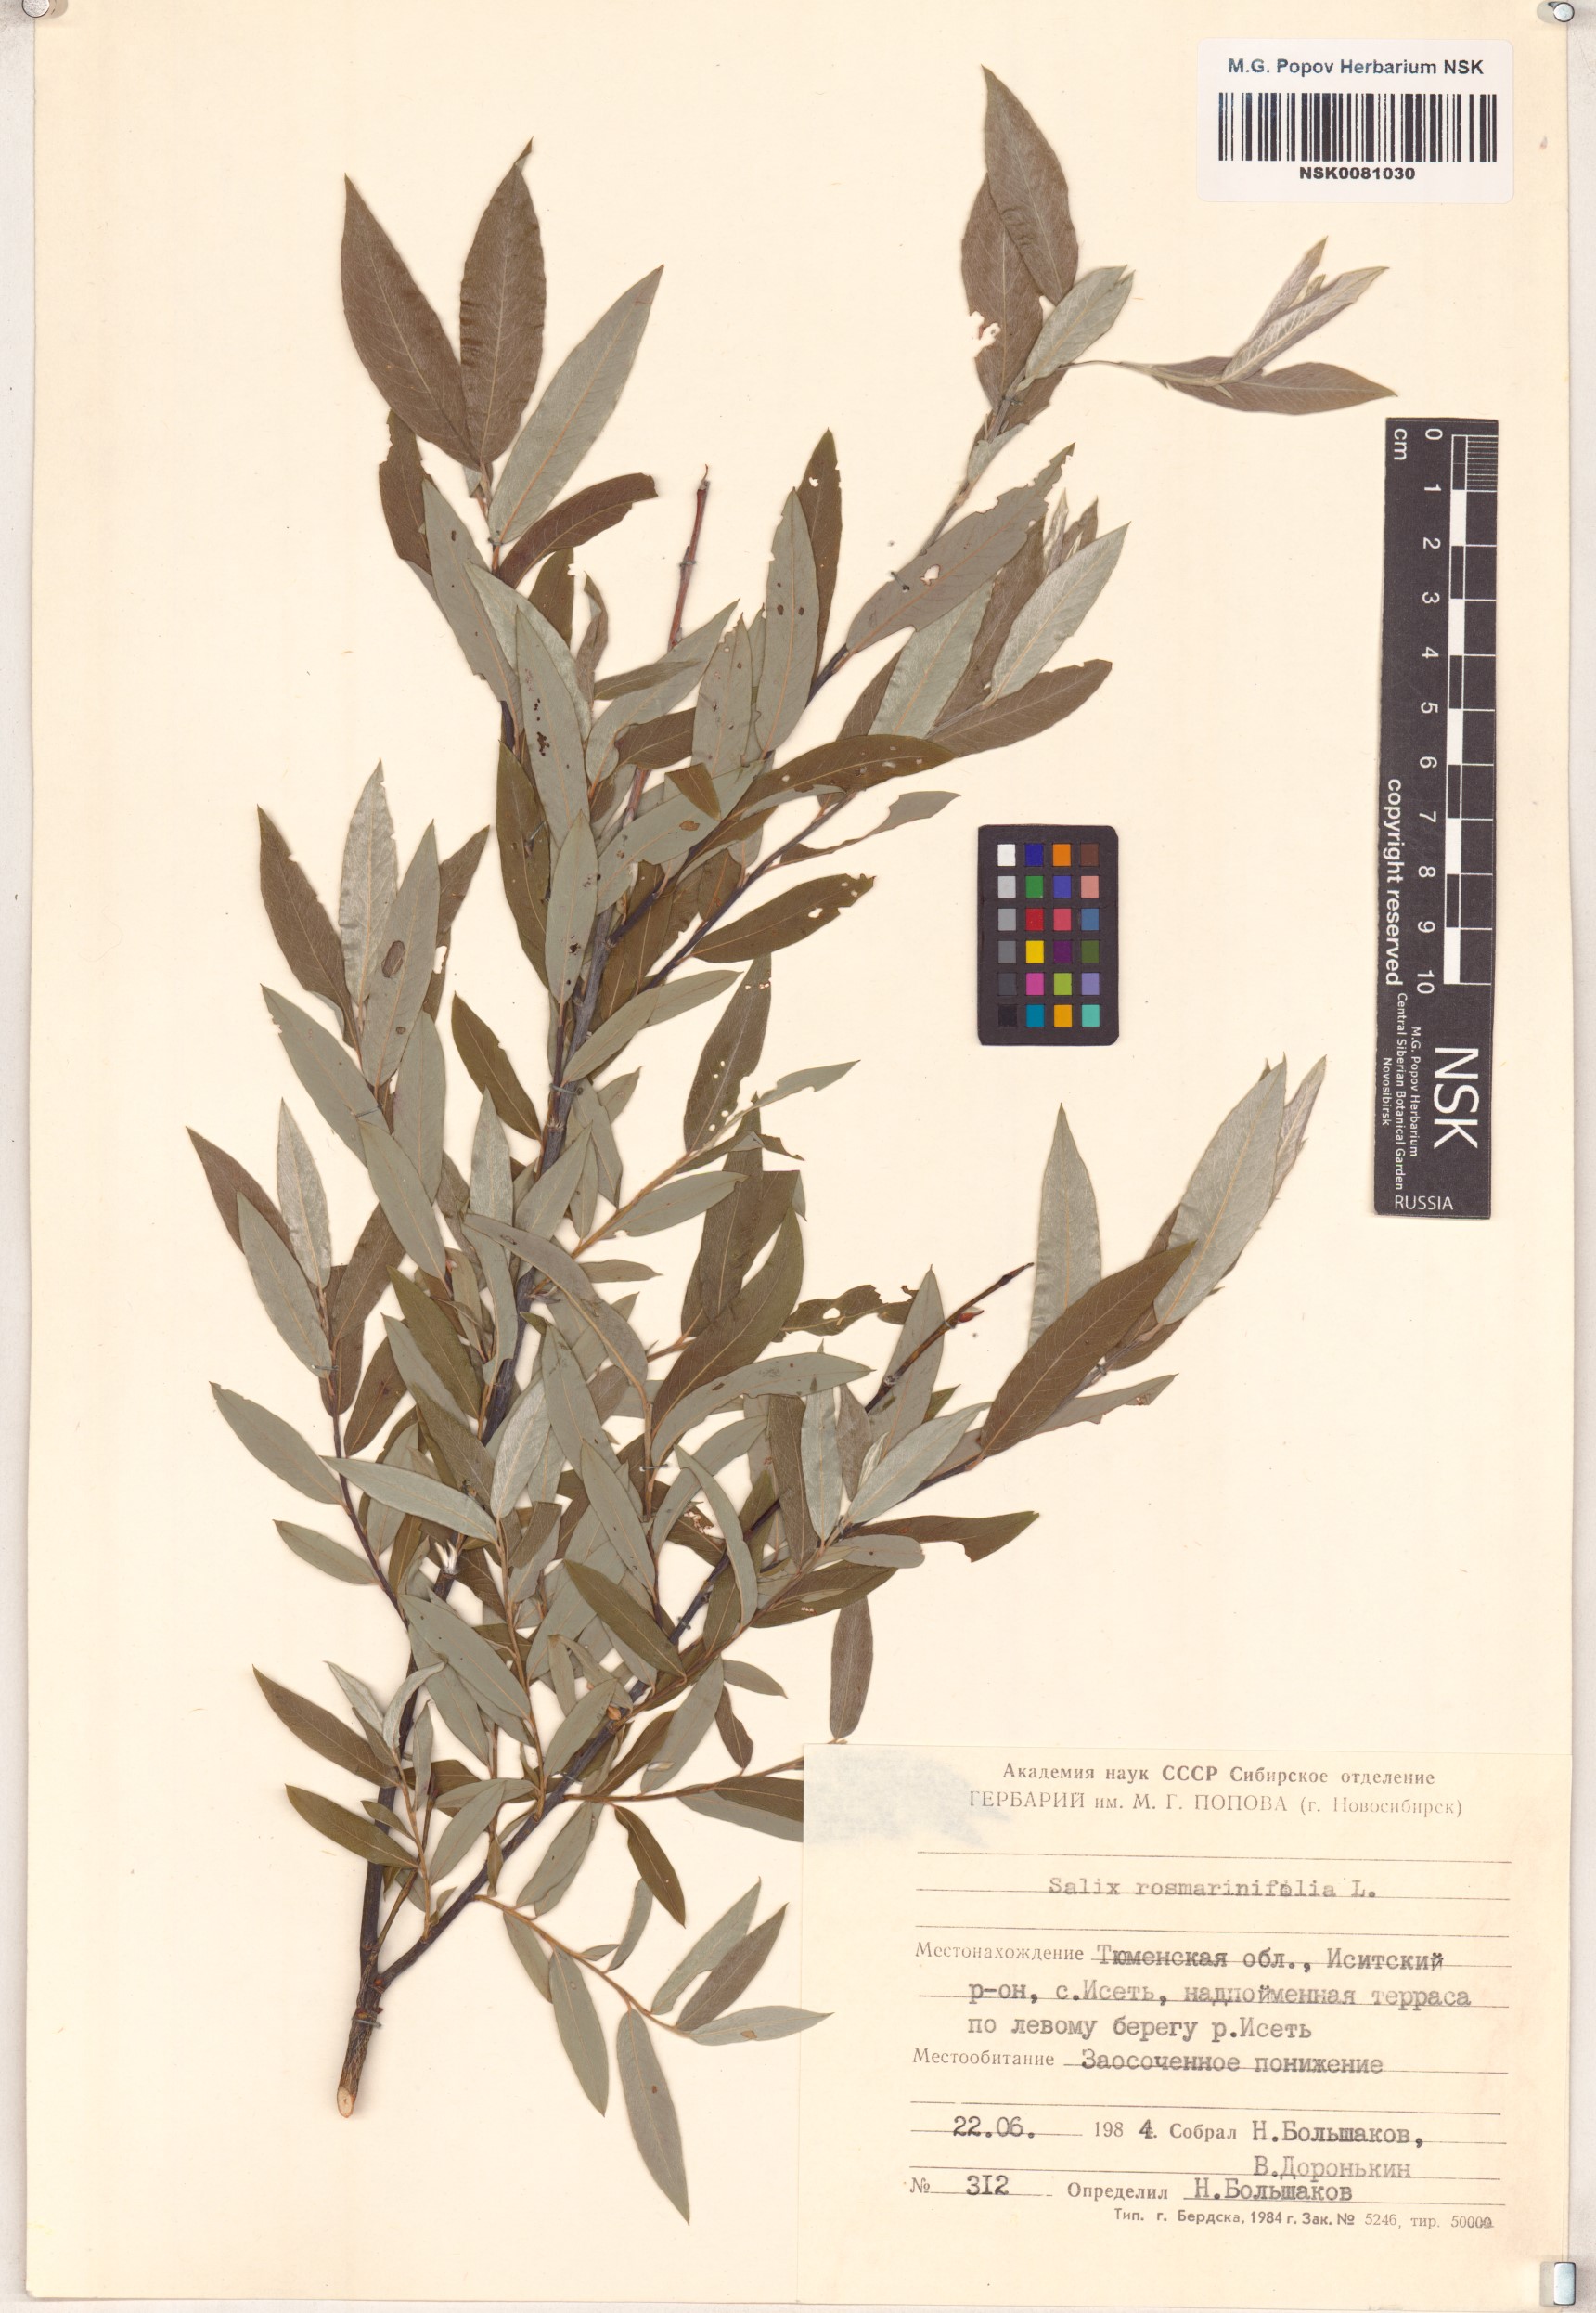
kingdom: Plantae
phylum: Tracheophyta
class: Magnoliopsida
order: Malpighiales
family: Salicaceae
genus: Salix
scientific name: Salix rosmarinifolia
